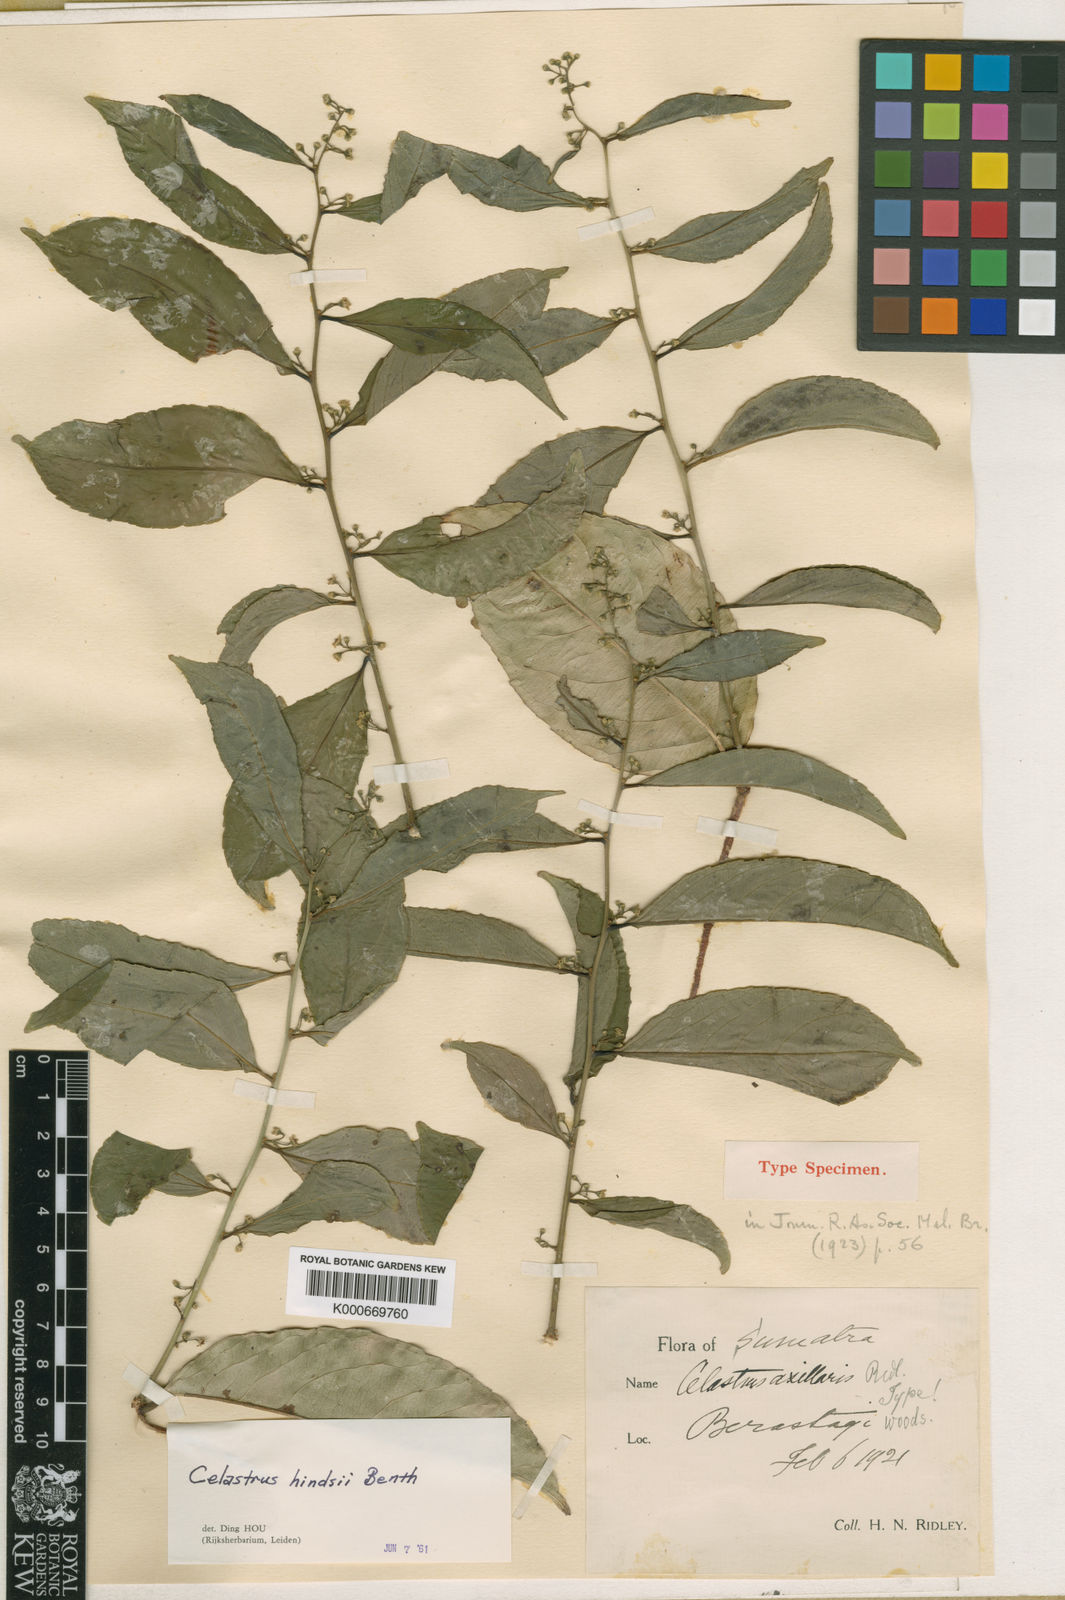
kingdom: Plantae
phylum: Tracheophyta
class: Magnoliopsida
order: Celastrales
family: Celastraceae
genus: Celastrus
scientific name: Celastrus hindsii
